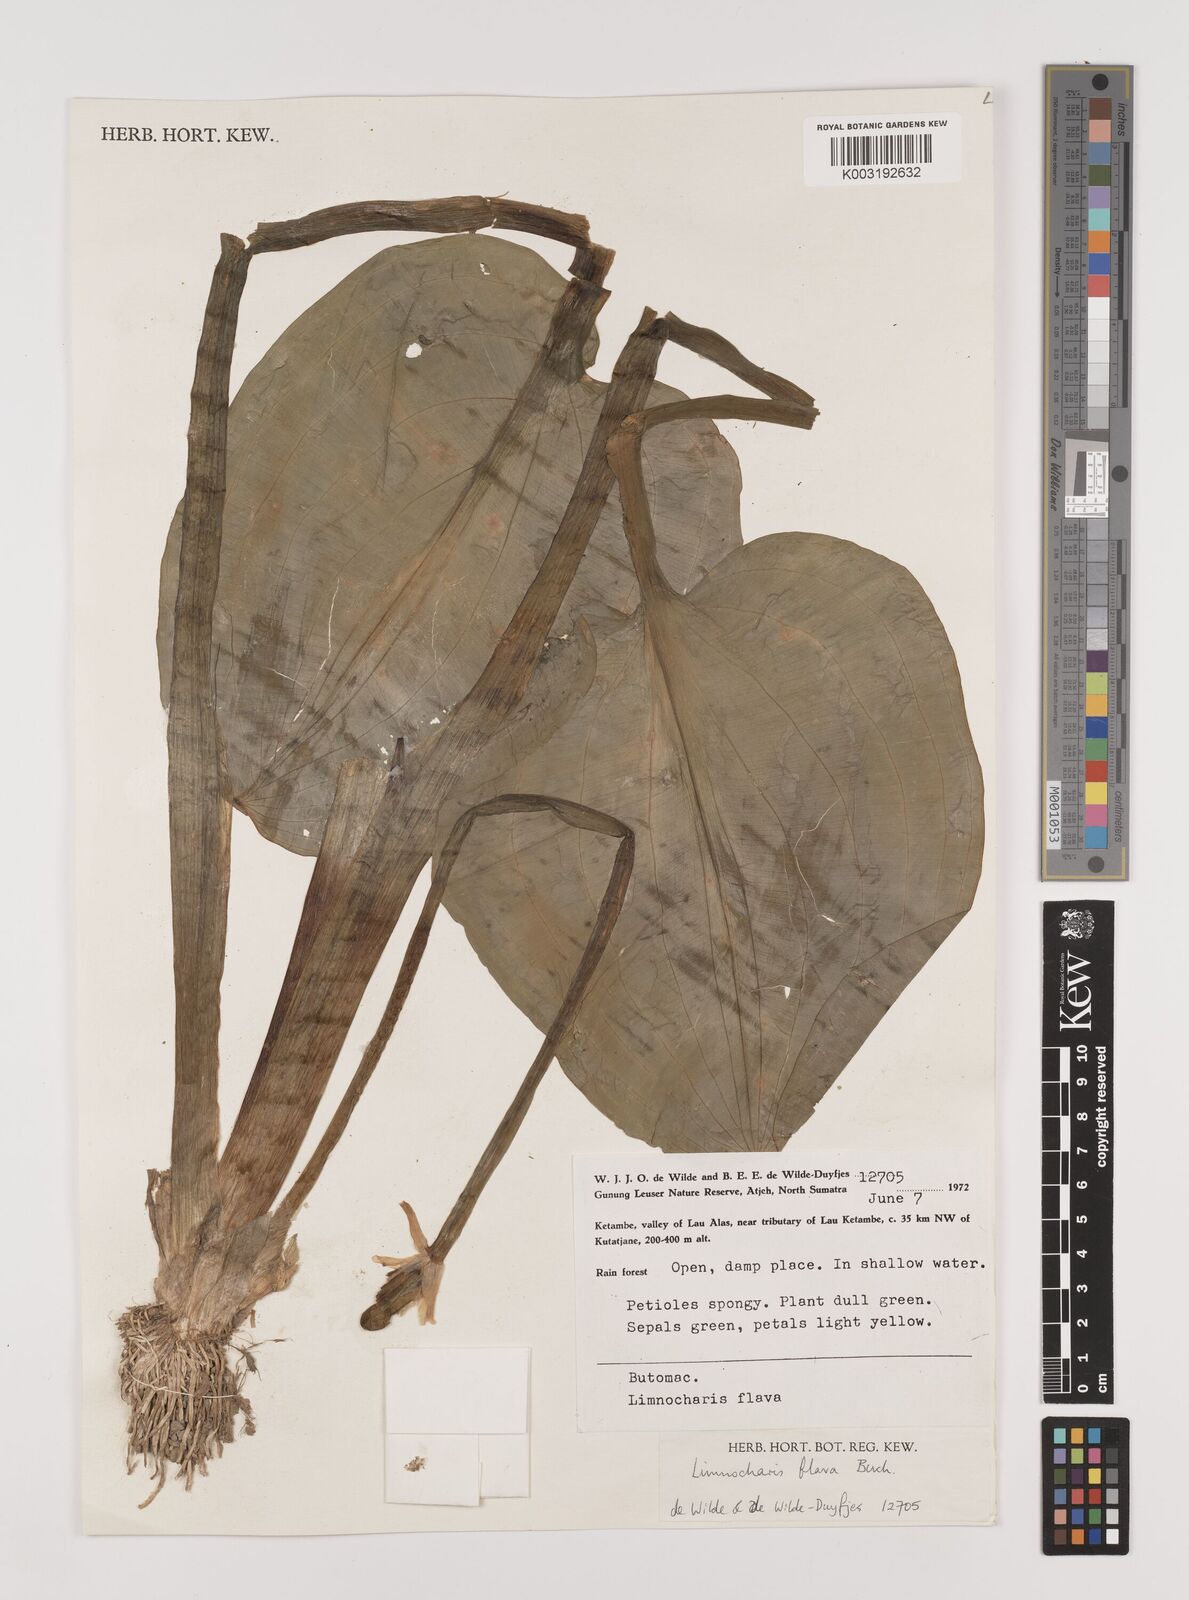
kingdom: Plantae
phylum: Tracheophyta
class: Liliopsida
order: Alismatales
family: Alismataceae
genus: Limnocharis
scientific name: Limnocharis flava
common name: Sawah-flower-rush
